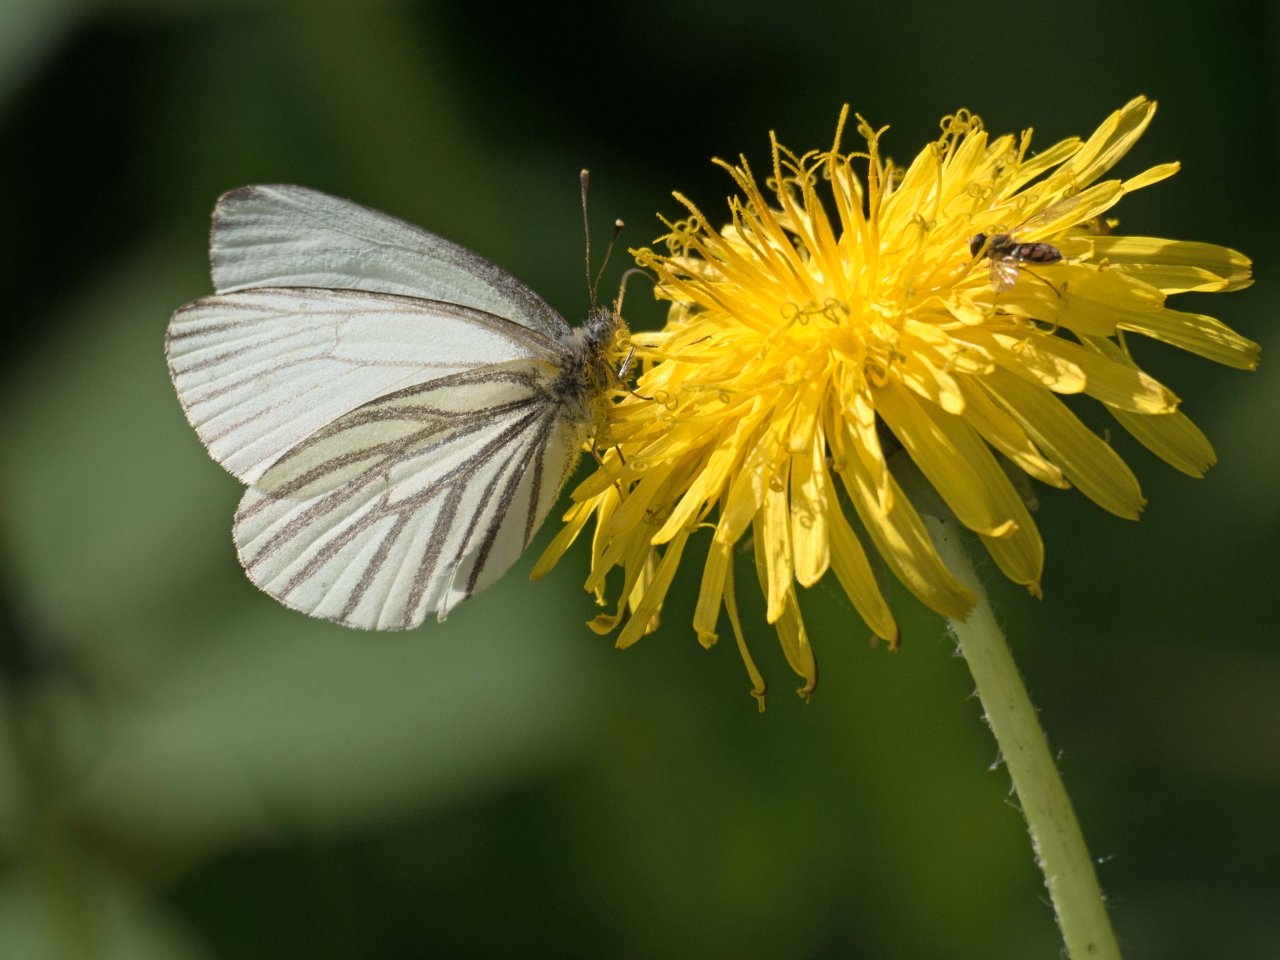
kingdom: Animalia
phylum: Arthropoda
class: Insecta
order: Lepidoptera
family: Pieridae
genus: Pieris
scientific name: Pieris oleracea
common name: Mustard White
